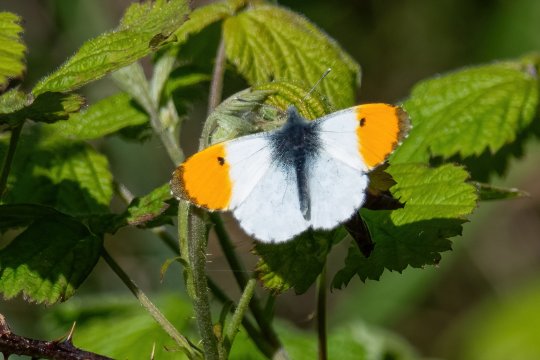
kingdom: Animalia
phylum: Arthropoda
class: Insecta
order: Lepidoptera
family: Pieridae
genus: Anthocharis
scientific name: Anthocharis cardamines
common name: Orange Tip
